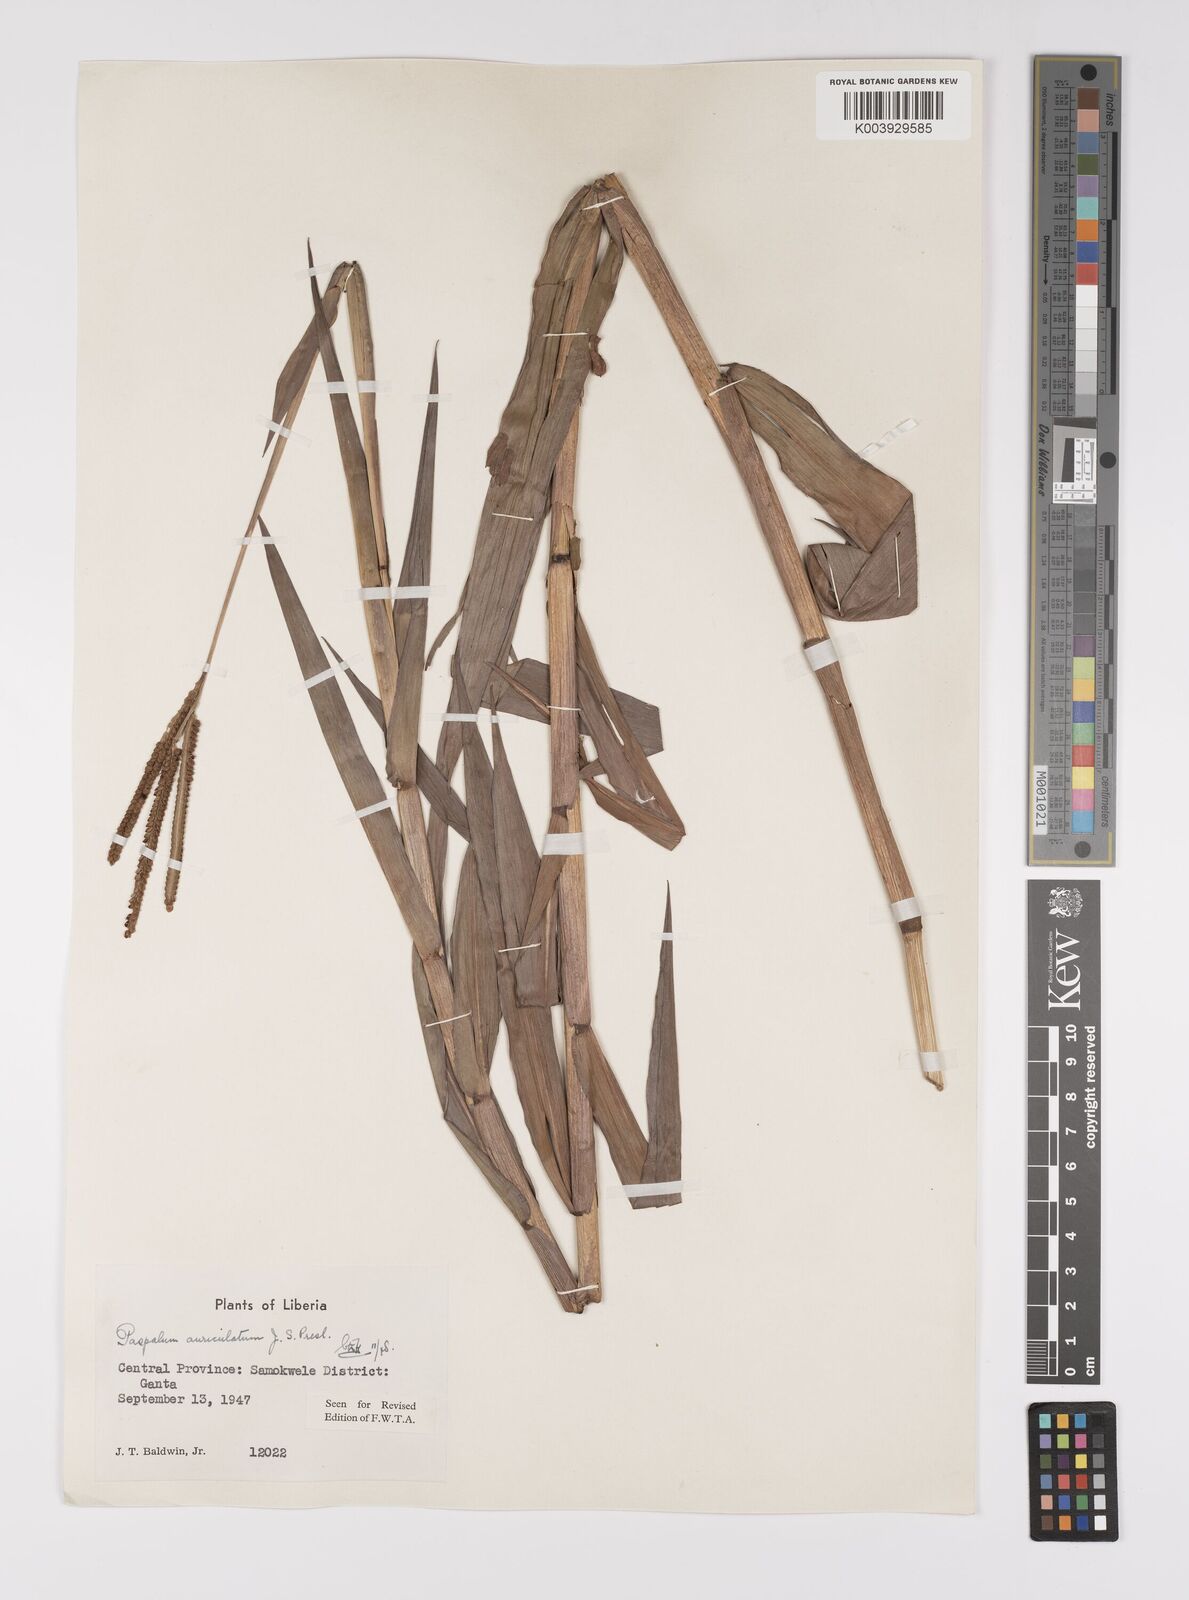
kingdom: Plantae
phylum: Tracheophyta
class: Liliopsida
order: Poales
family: Poaceae
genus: Paspalum
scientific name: Paspalum lamprocaryon
